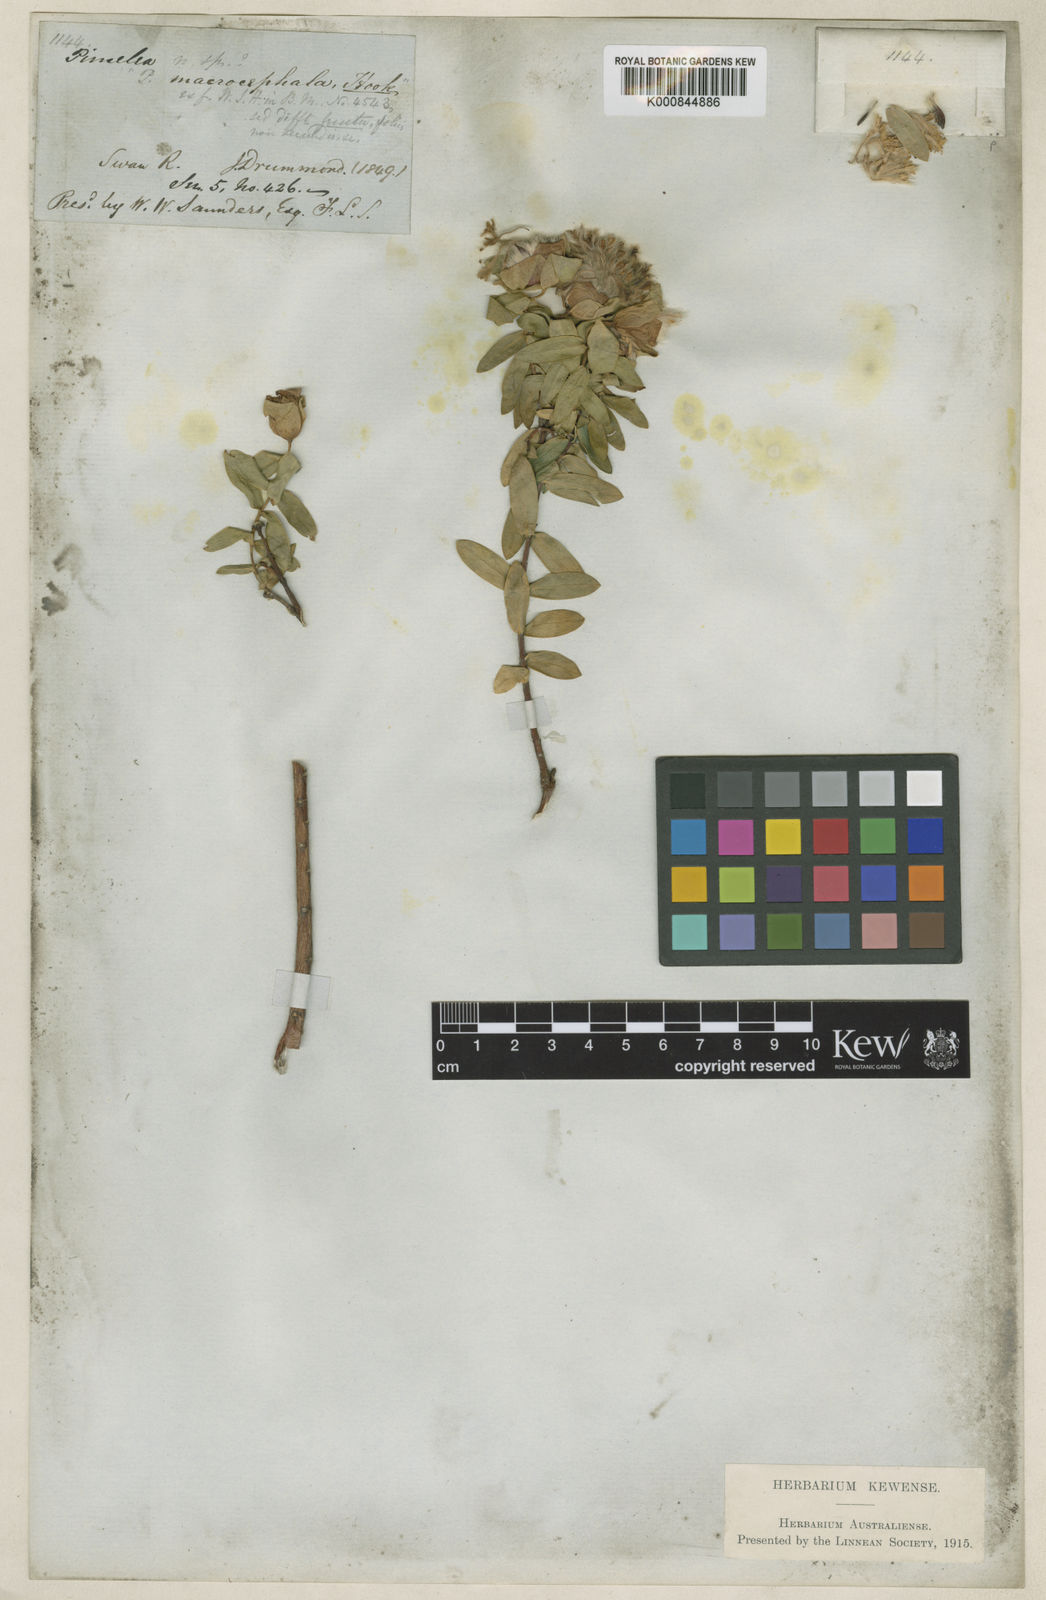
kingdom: Plantae
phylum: Tracheophyta
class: Magnoliopsida
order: Malvales
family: Thymelaeaceae
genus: Pimelea
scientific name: Pimelea suaveolens
